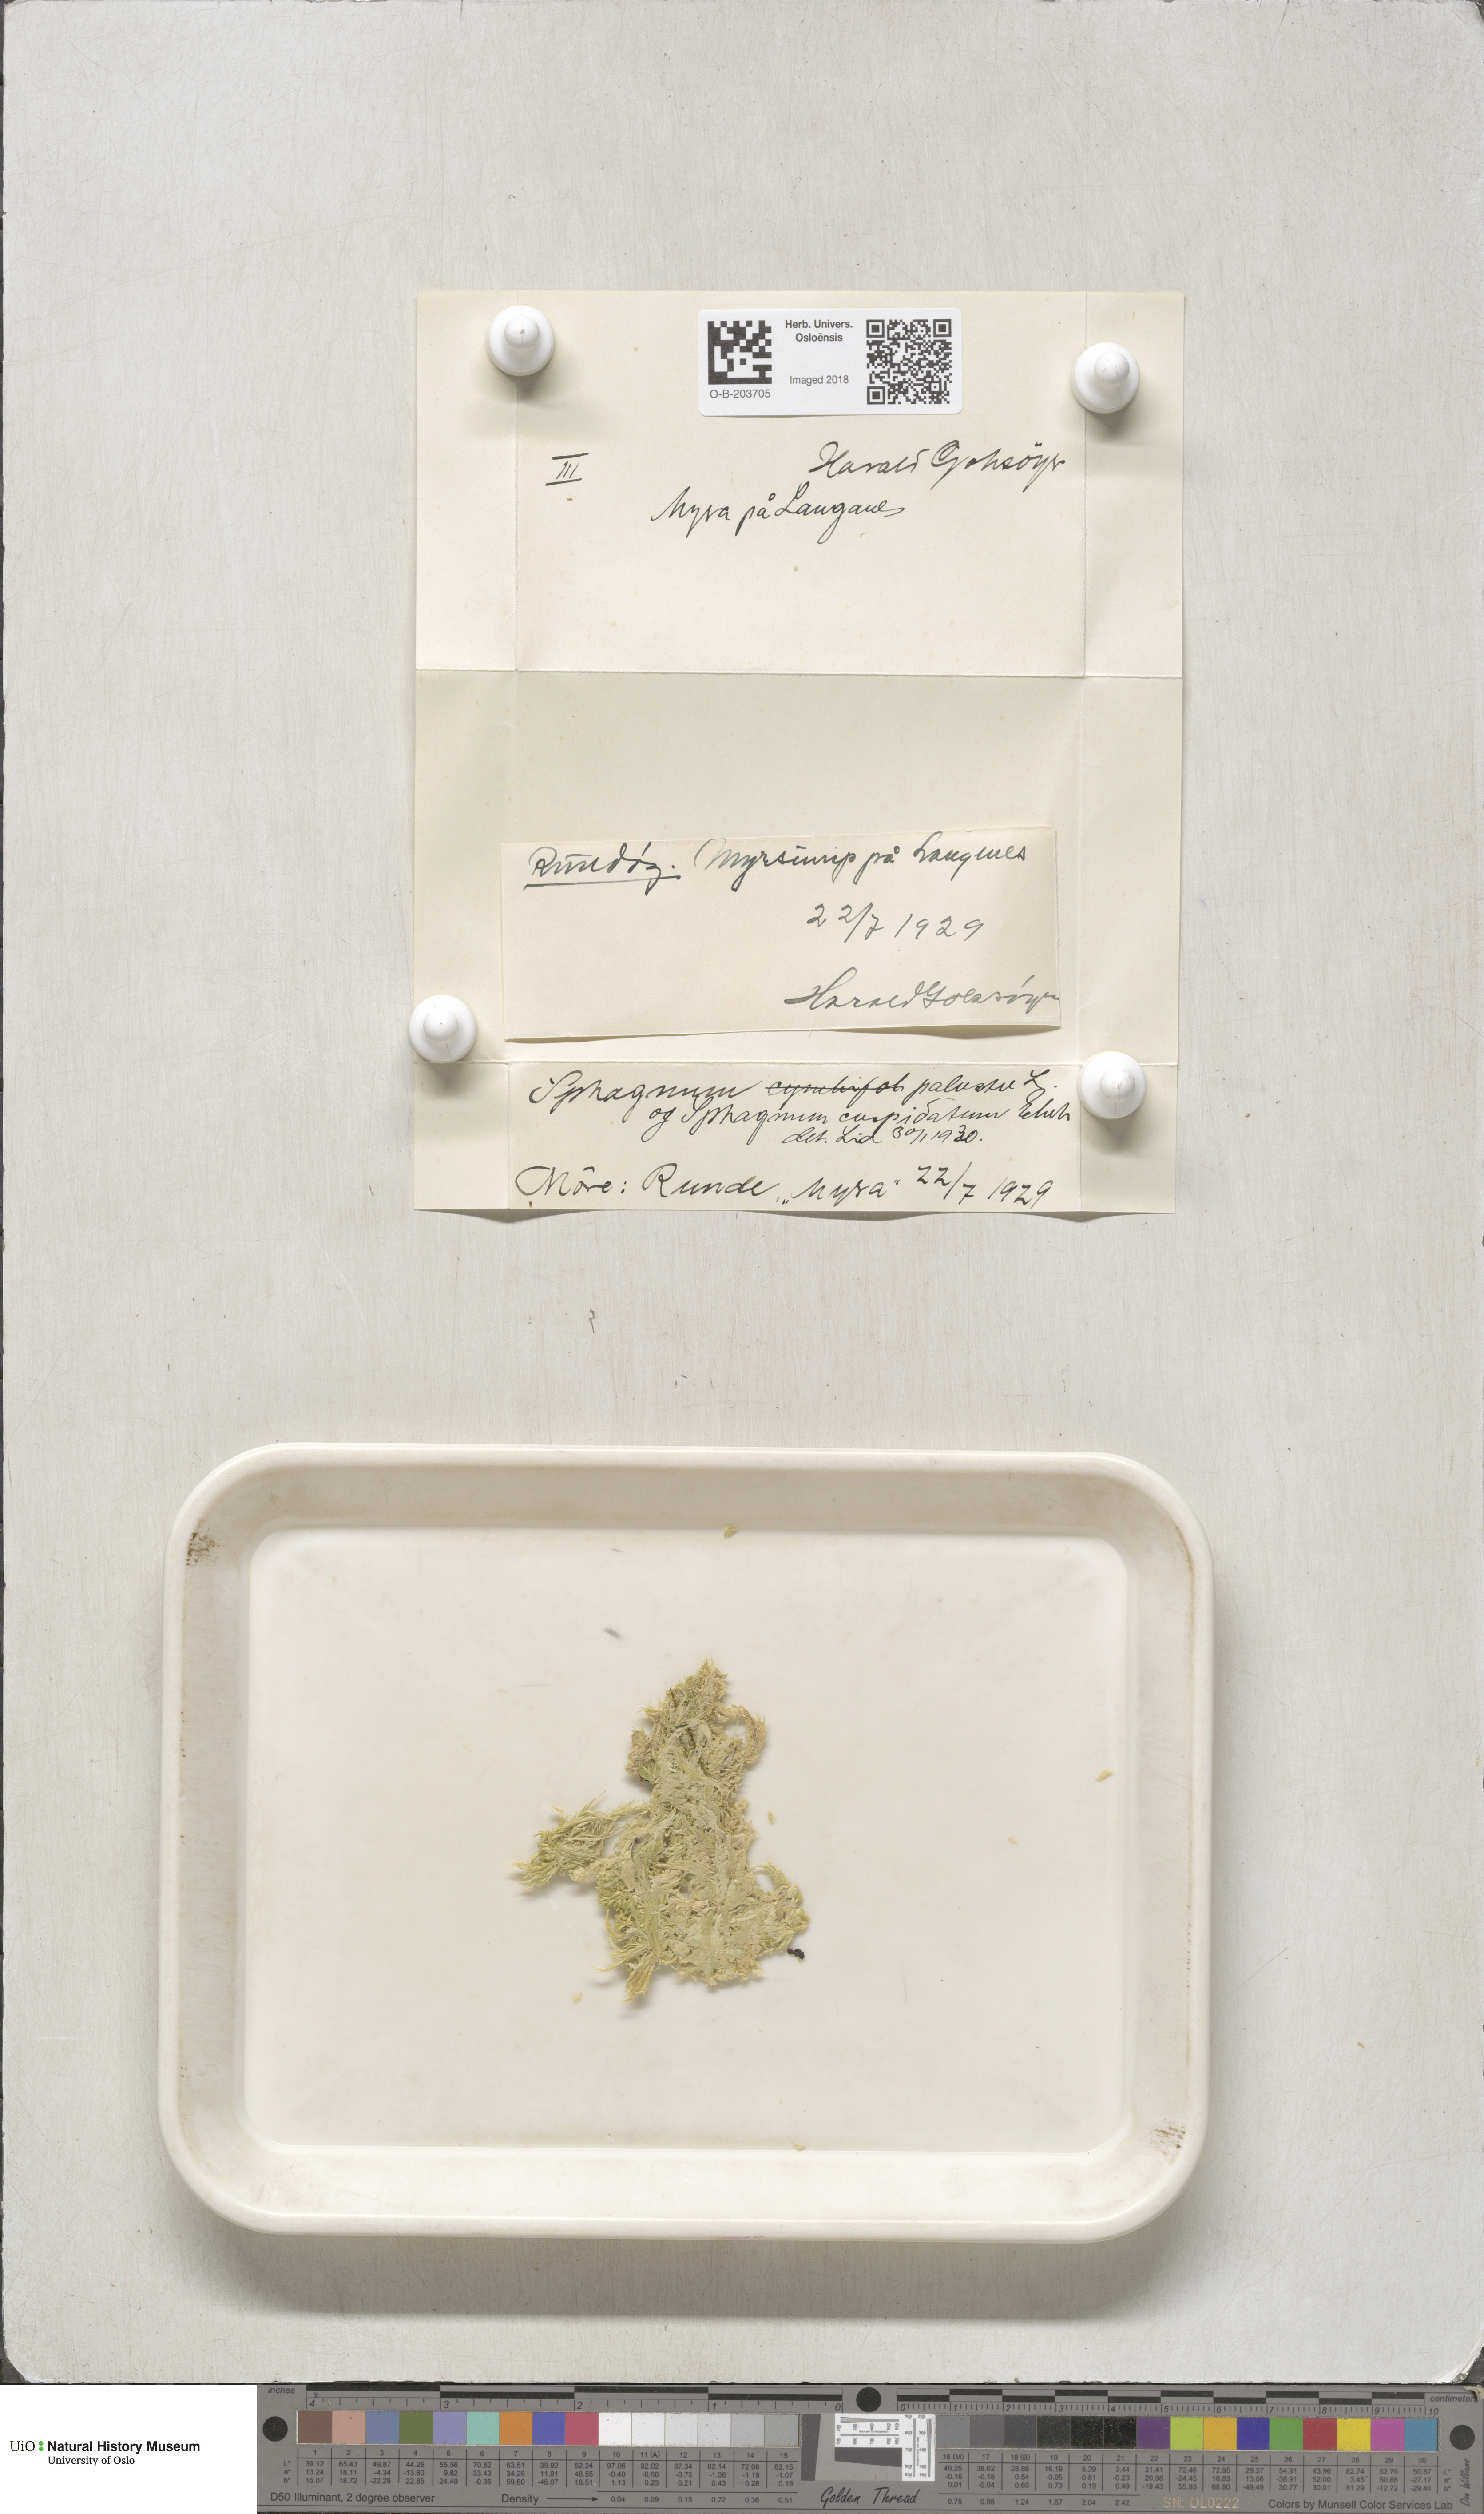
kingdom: Plantae
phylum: Bryophyta
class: Sphagnopsida
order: Sphagnales
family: Sphagnaceae
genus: Sphagnum
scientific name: Sphagnum palustre
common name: Blunt-leaved bog-moss
